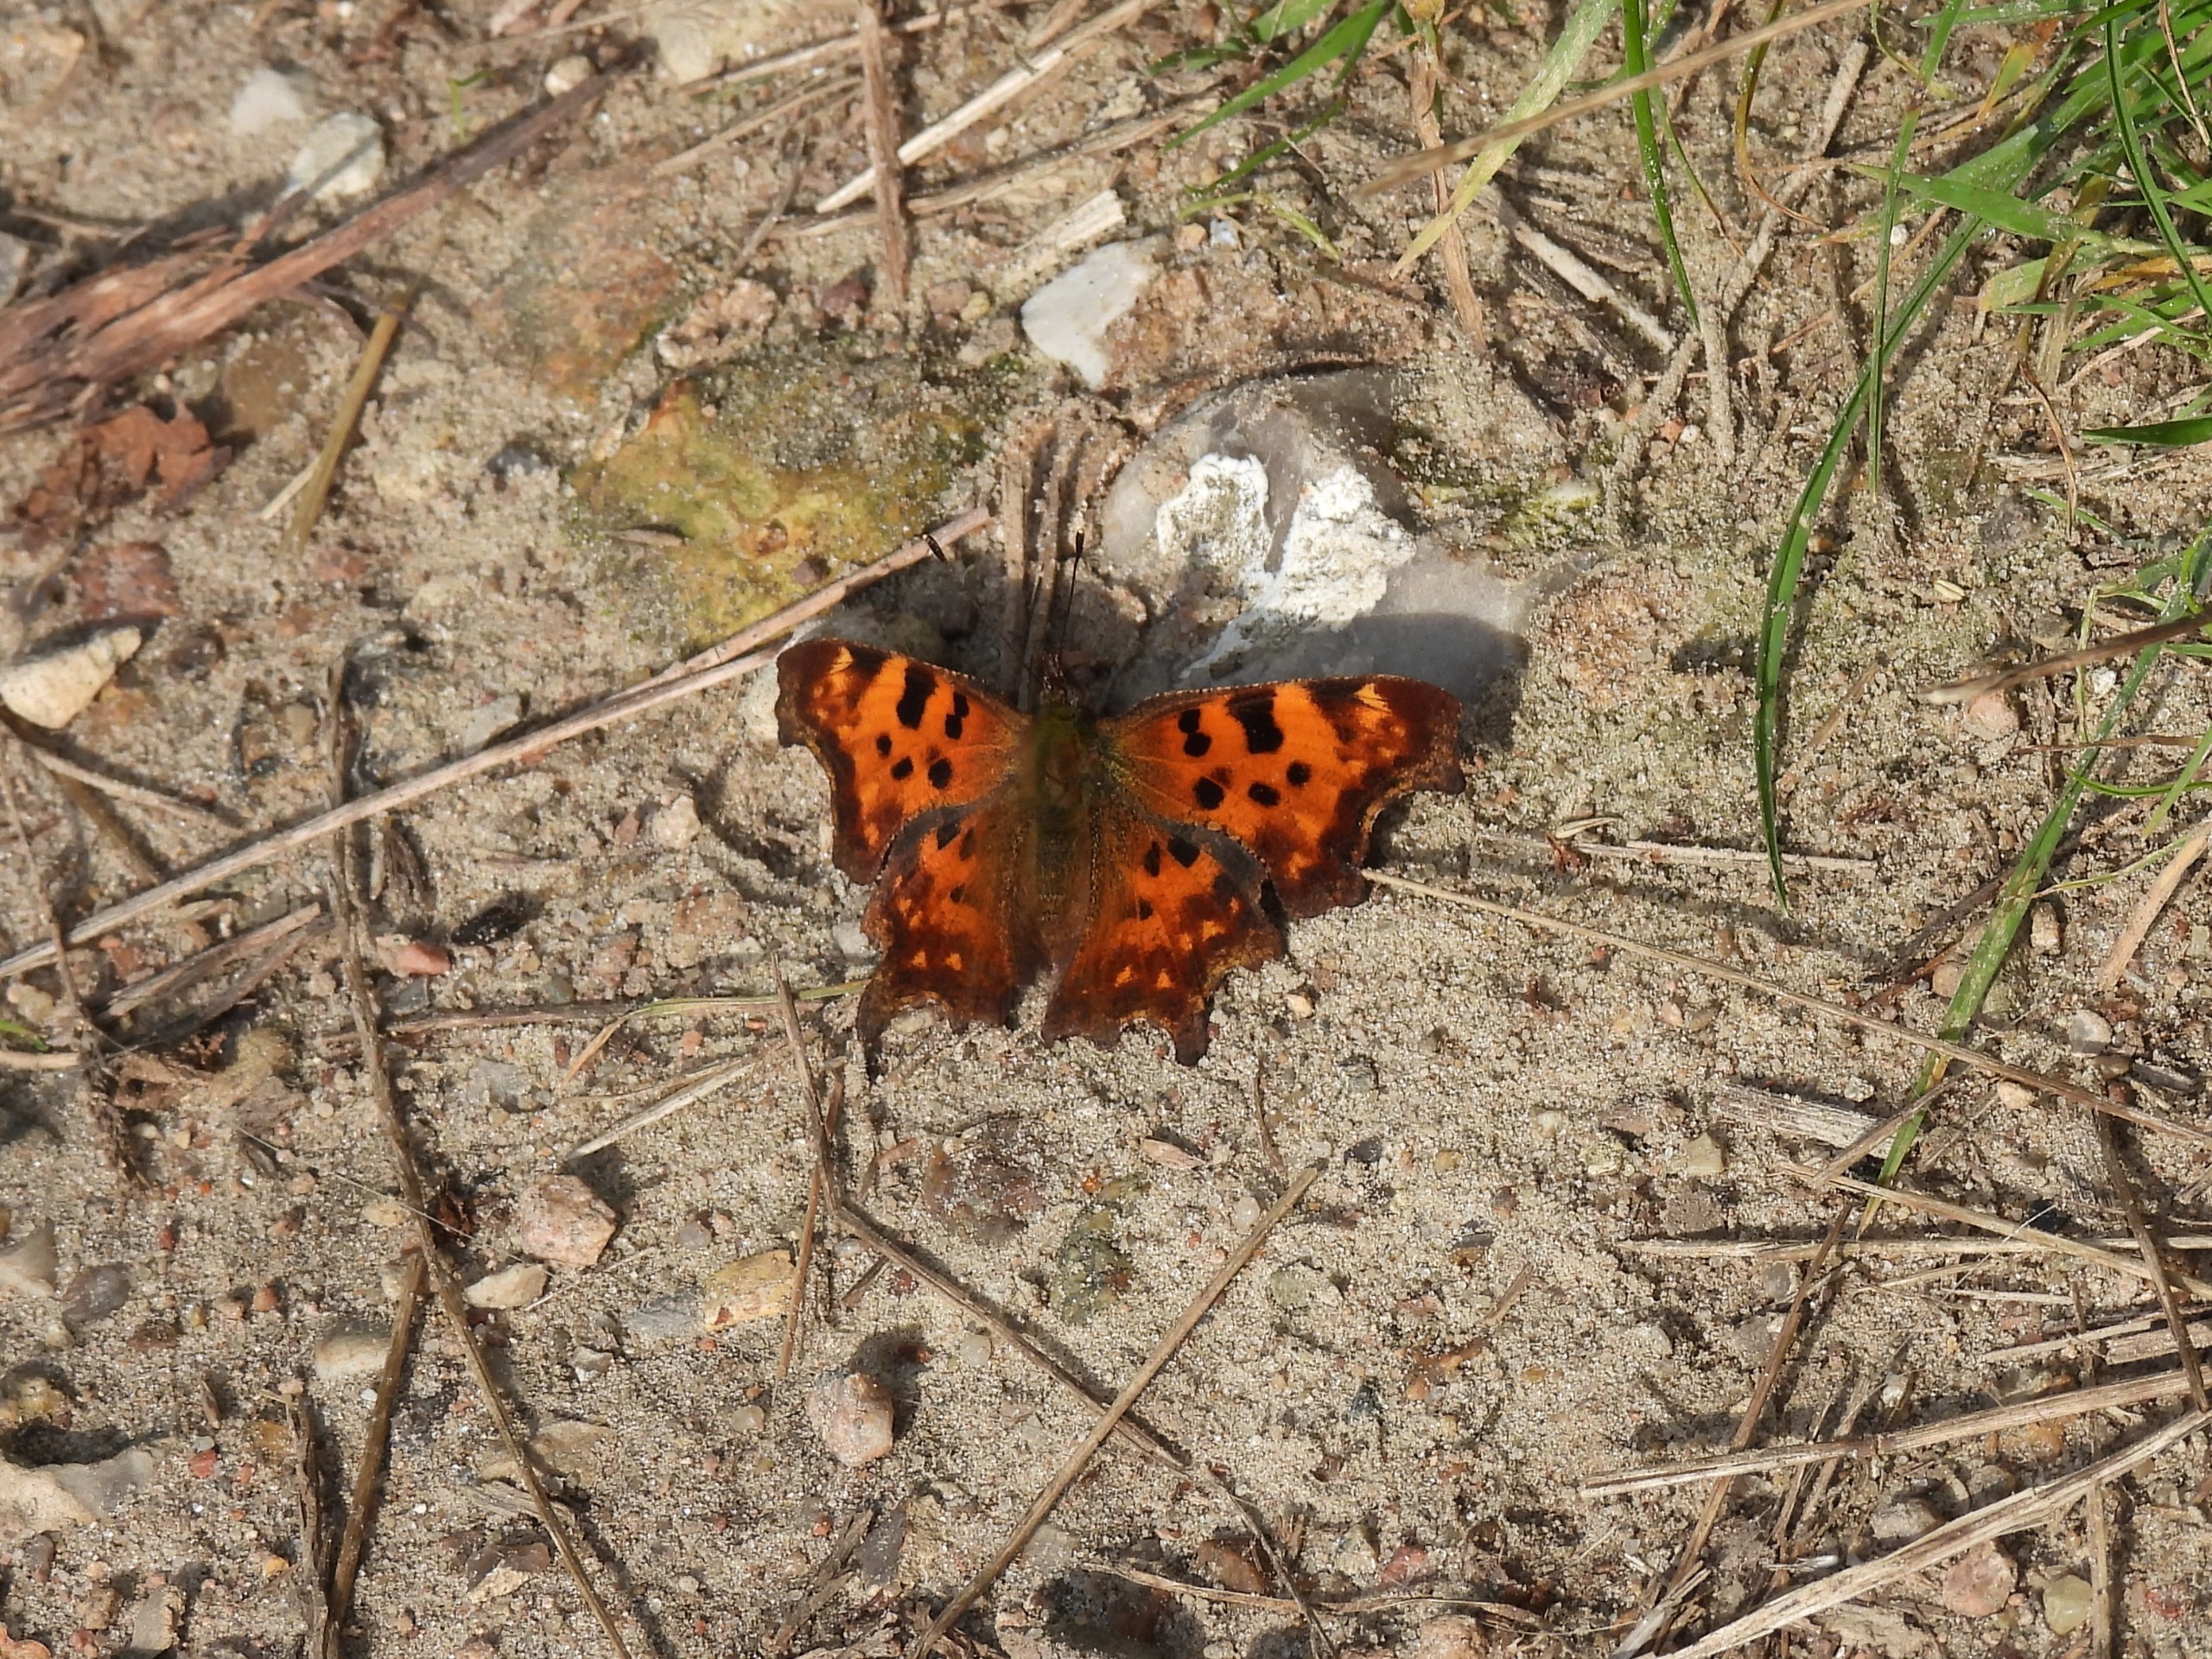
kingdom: Animalia
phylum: Arthropoda
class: Insecta
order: Lepidoptera
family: Nymphalidae
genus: Polygonia
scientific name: Polygonia c-album
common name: Det hvide C
